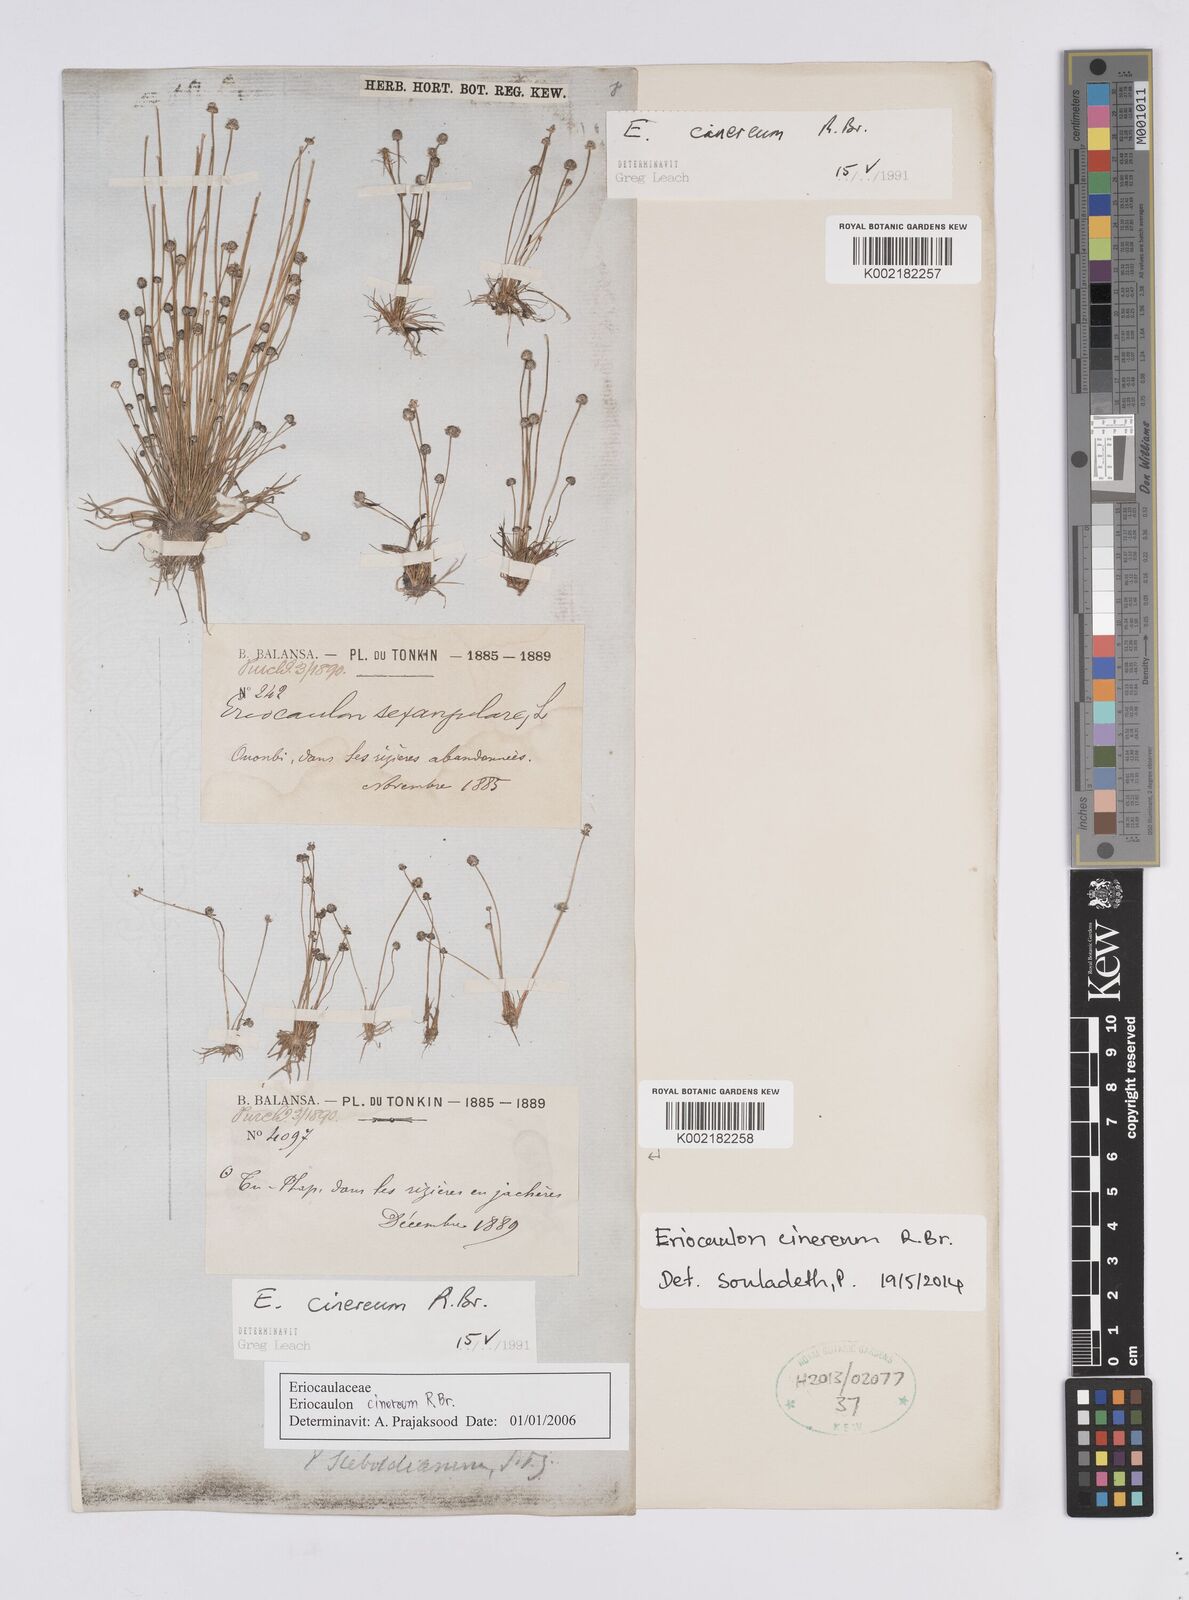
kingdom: Plantae
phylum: Tracheophyta
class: Liliopsida
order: Poales
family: Eriocaulaceae
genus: Eriocaulon
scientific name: Eriocaulon cinereum
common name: Ashy pipewort
